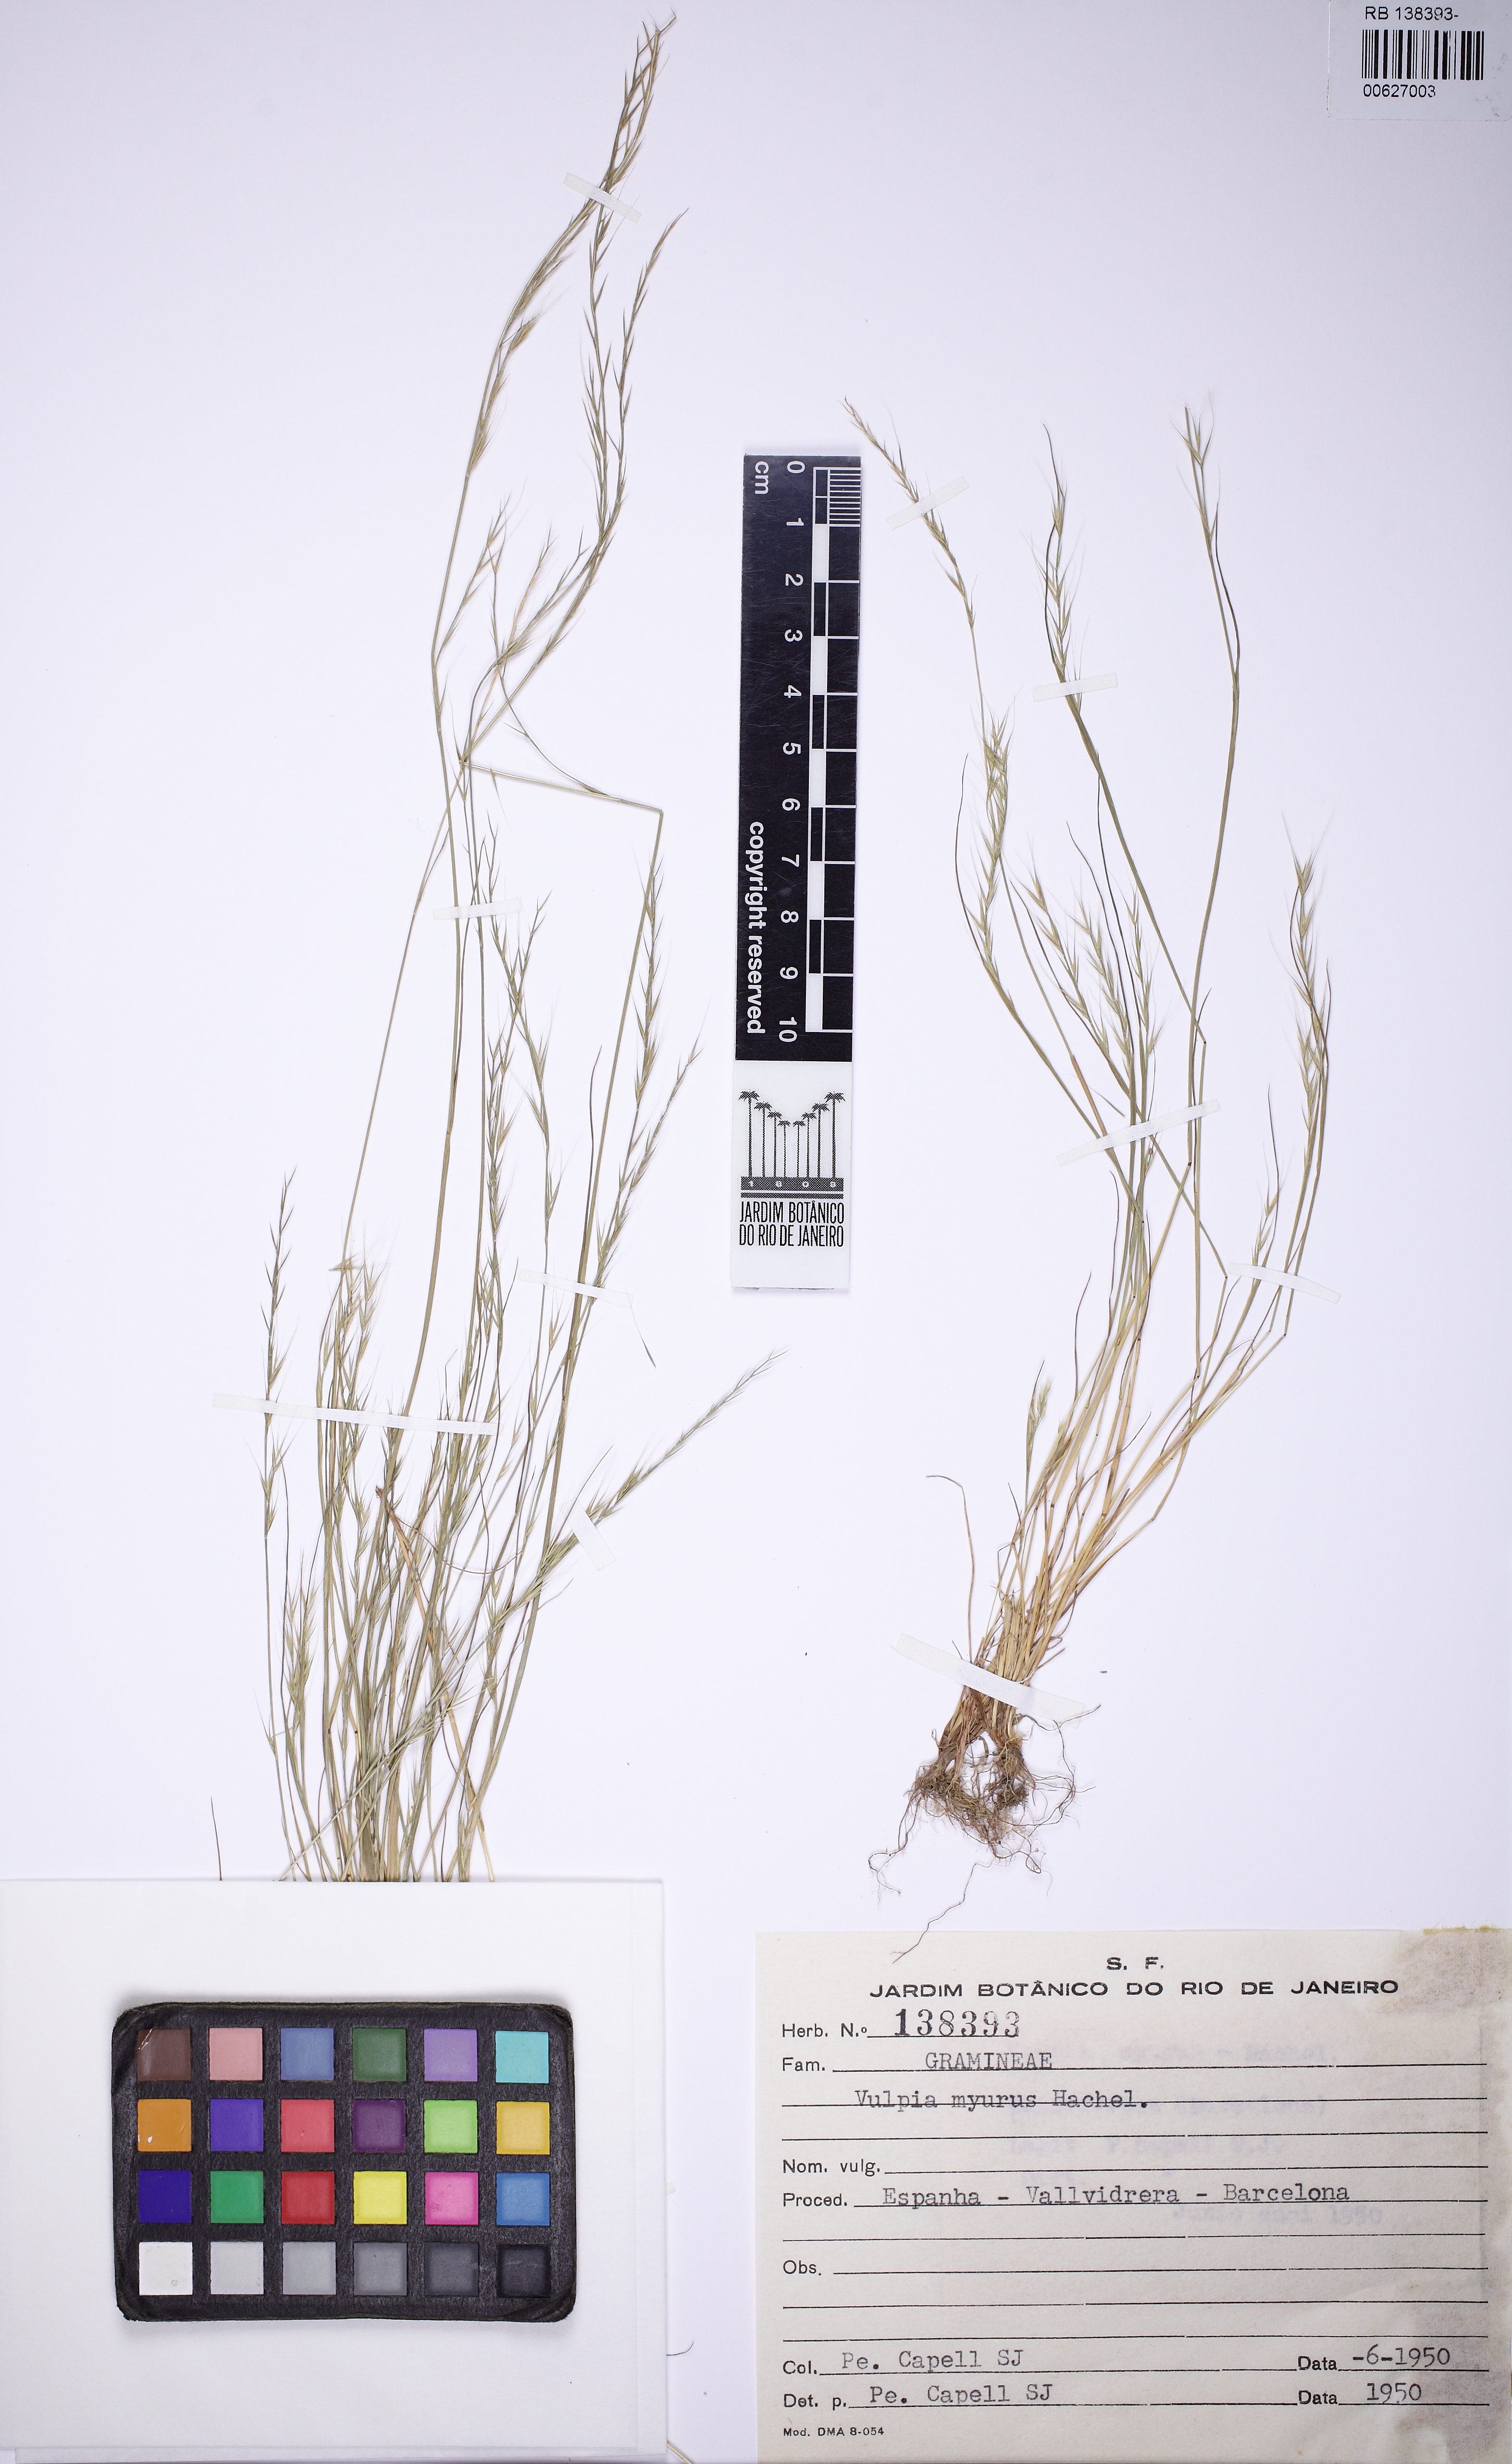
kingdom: Plantae
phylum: Tracheophyta
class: Liliopsida
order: Poales
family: Poaceae
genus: Festuca
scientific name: Festuca myuros
